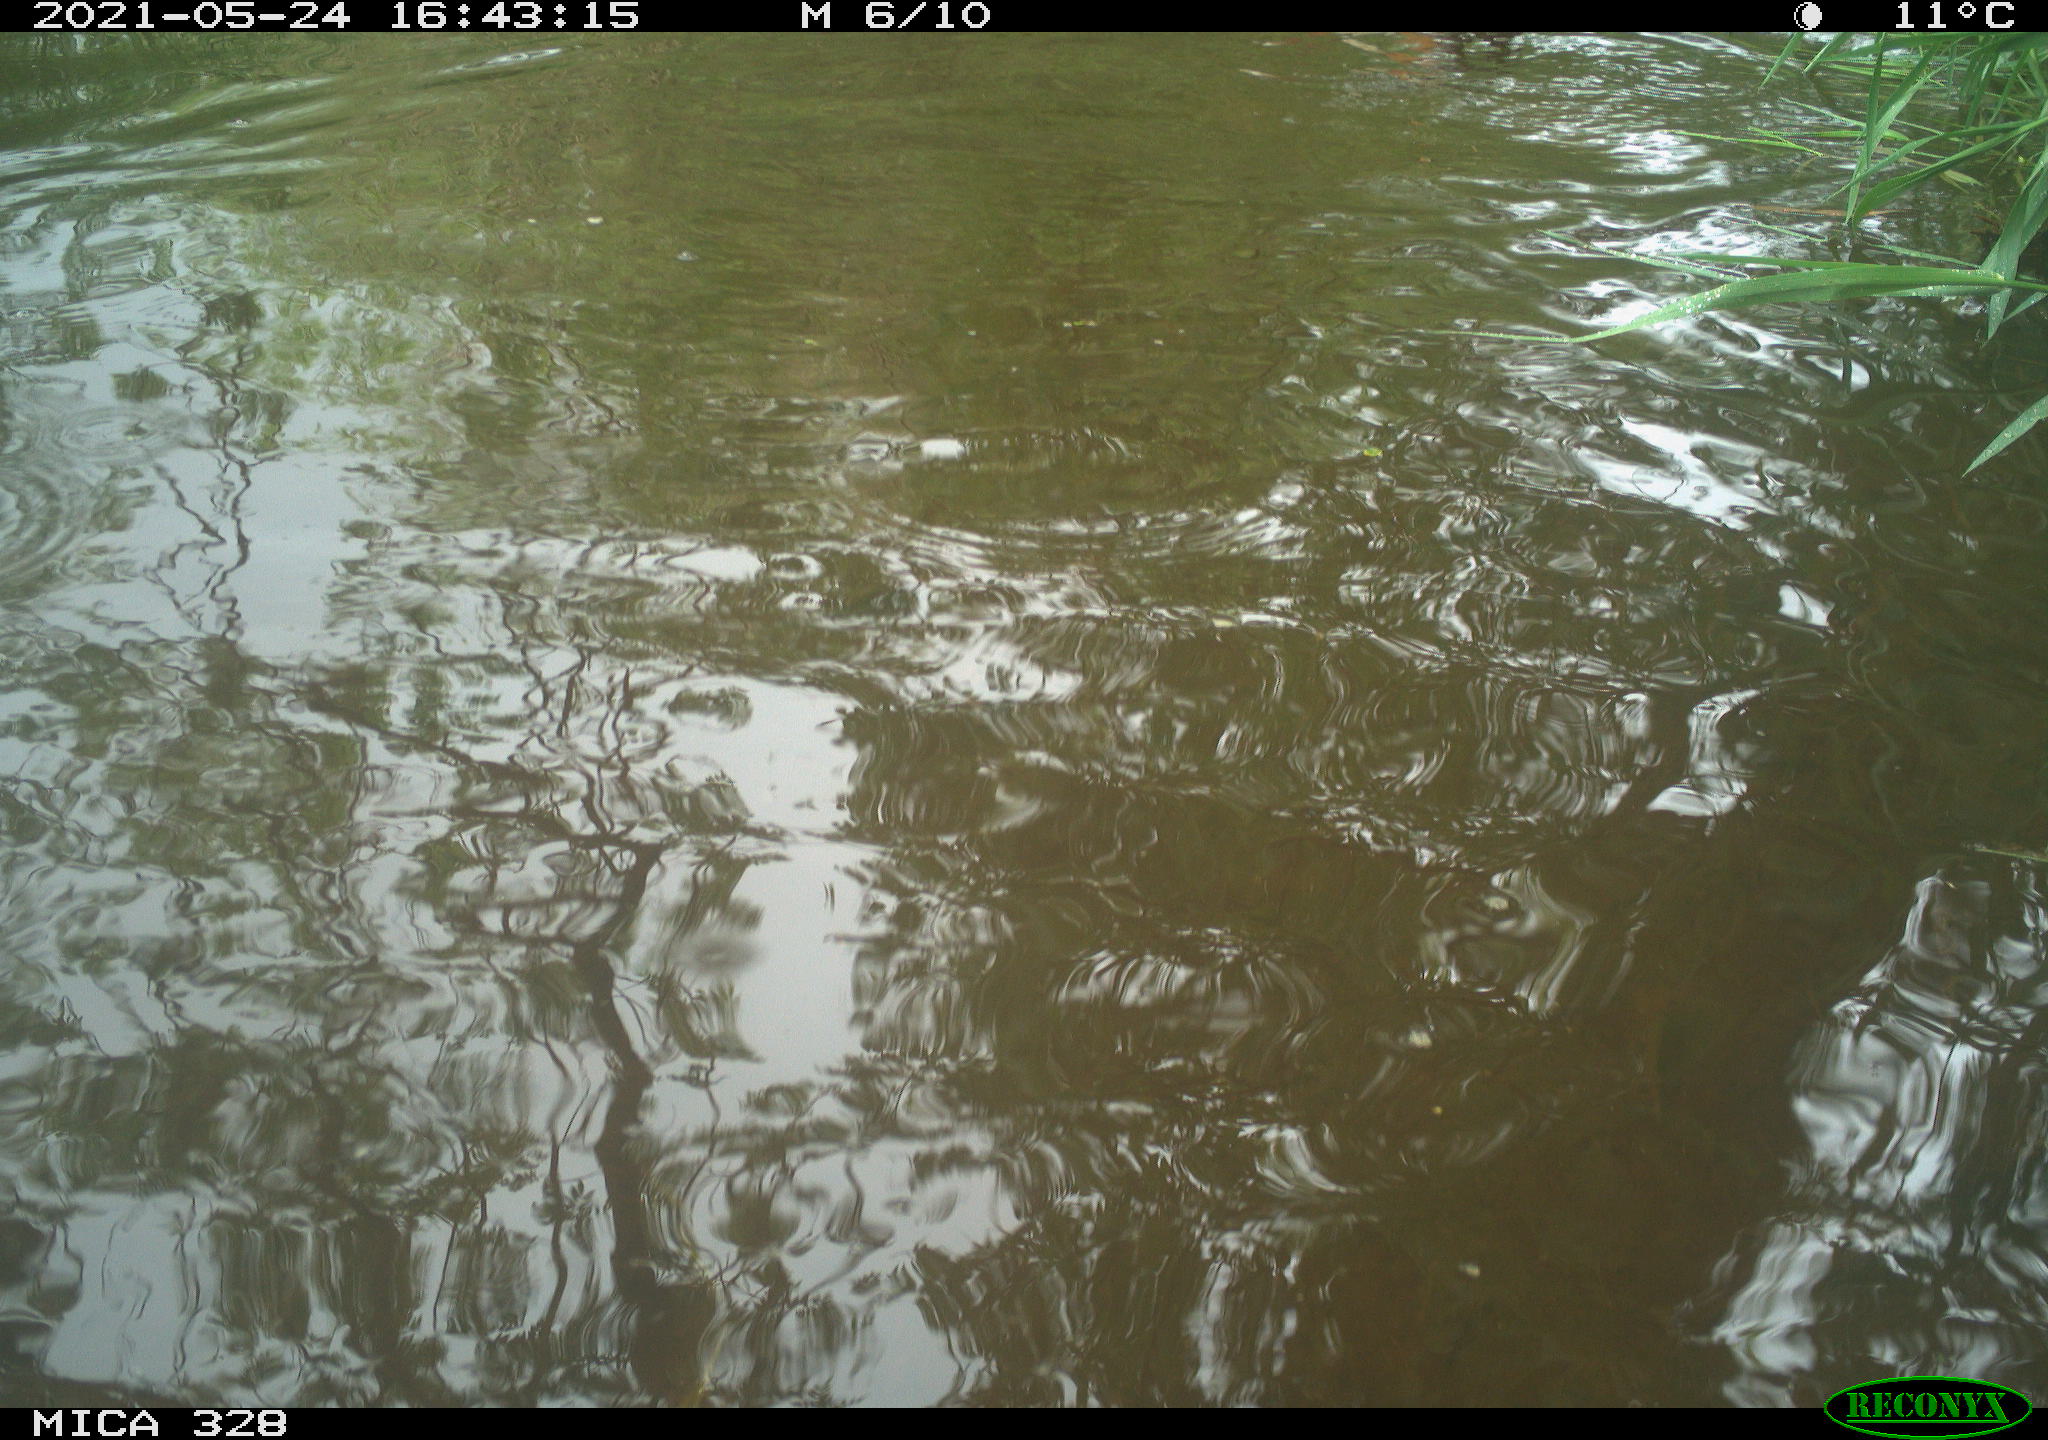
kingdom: Animalia
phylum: Chordata
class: Aves
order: Anseriformes
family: Anatidae
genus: Aix
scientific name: Aix galericulata
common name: Mandarin duck
